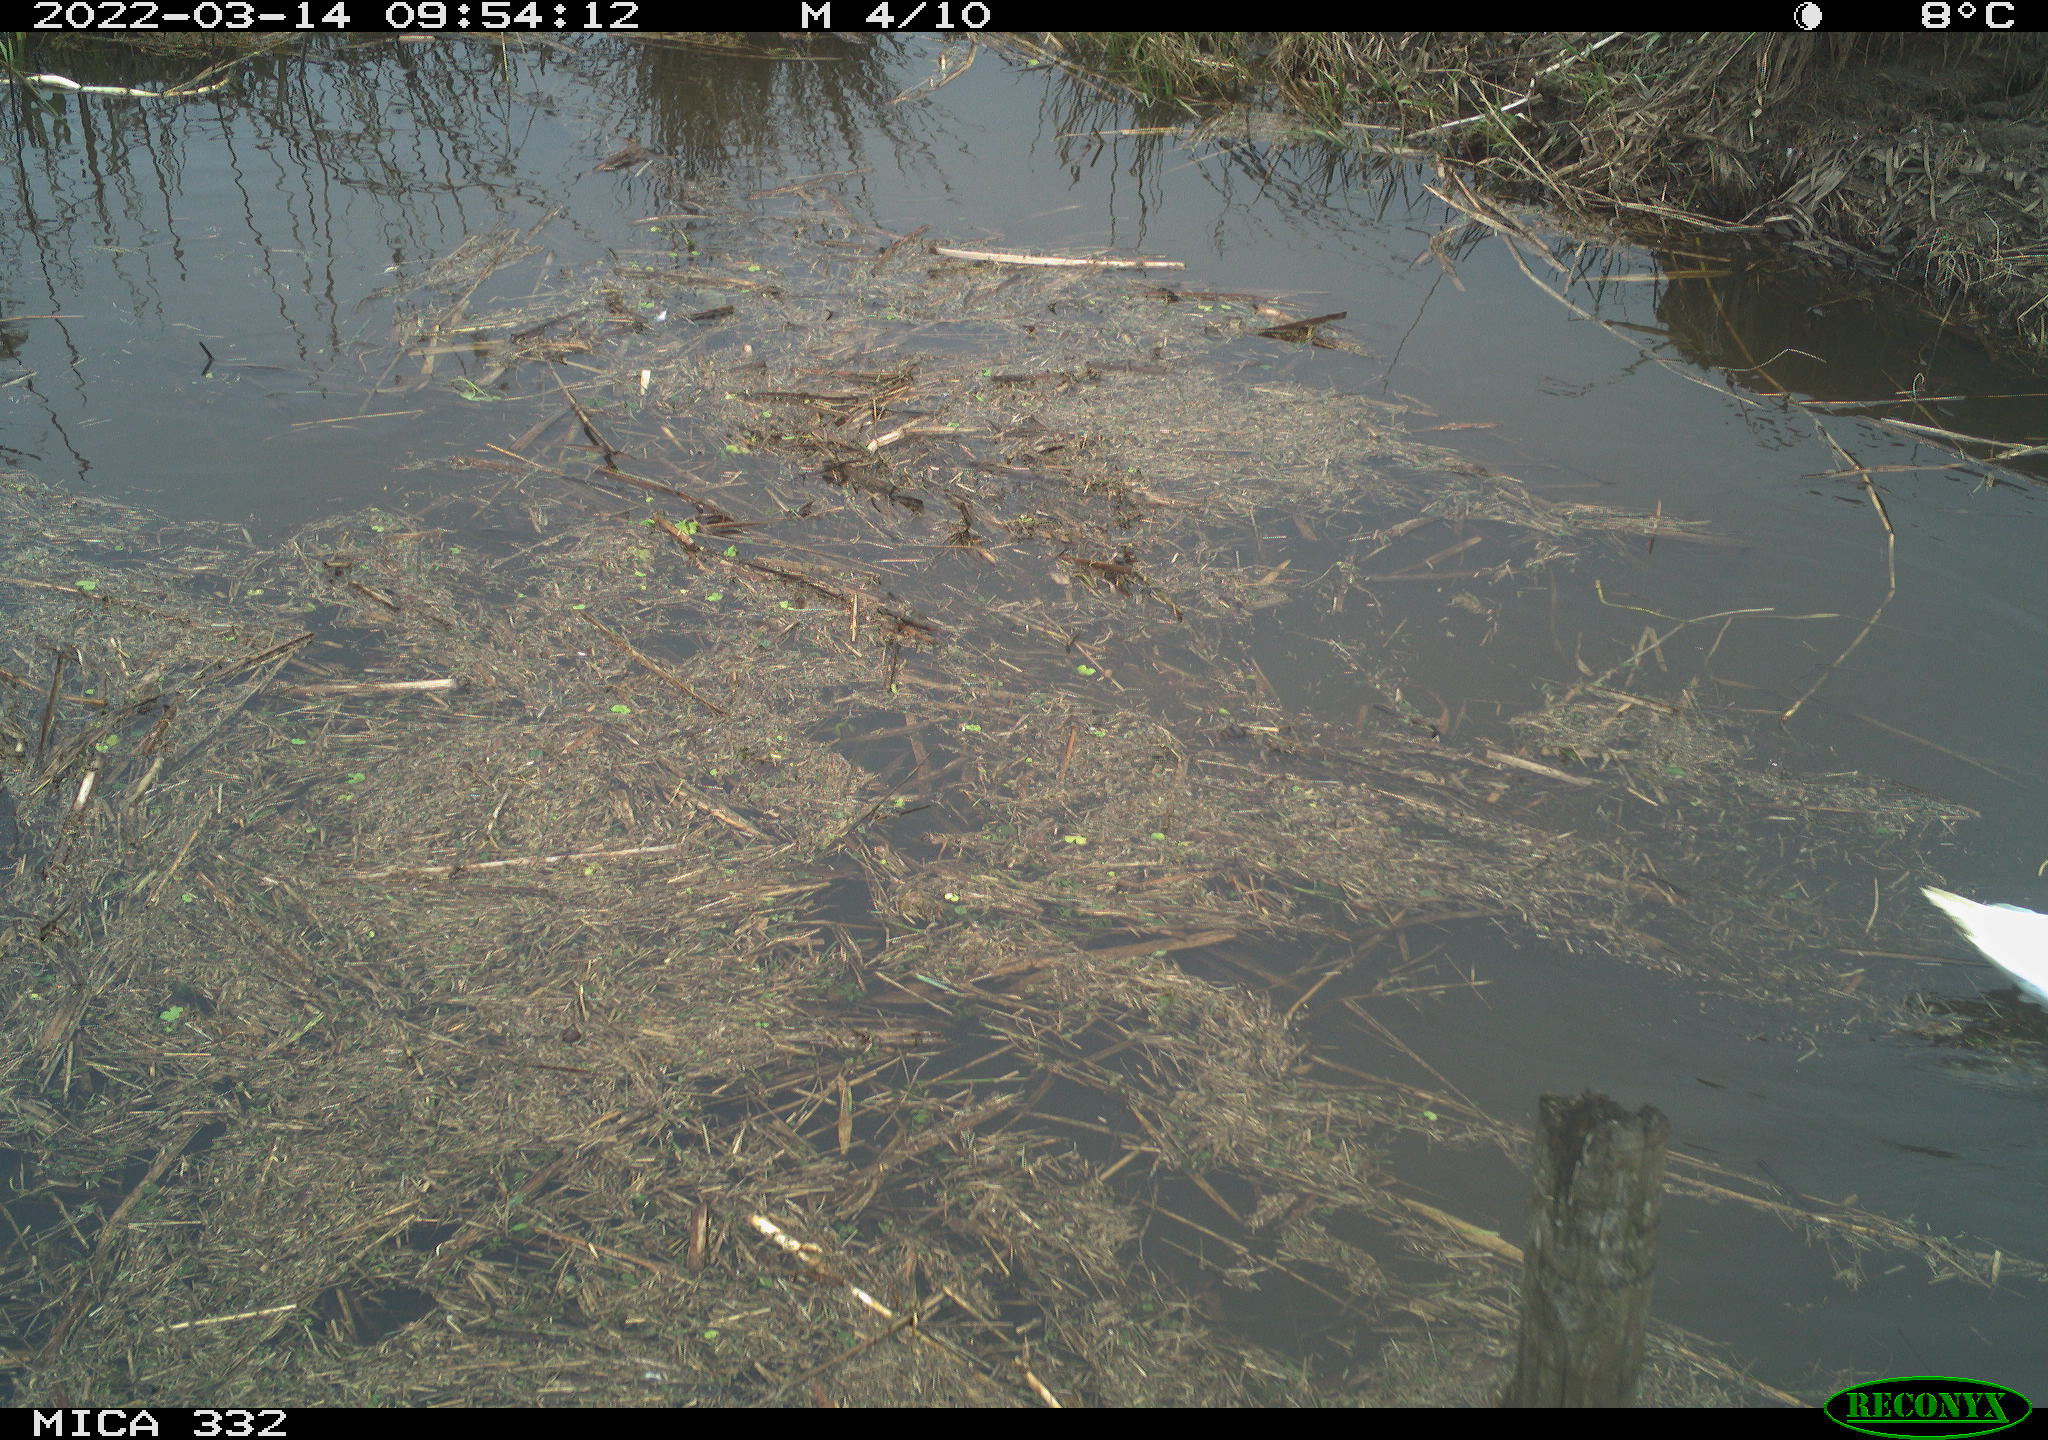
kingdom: Animalia
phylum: Chordata
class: Aves
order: Anseriformes
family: Anatidae
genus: Cygnus
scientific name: Cygnus olor
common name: Mute swan
